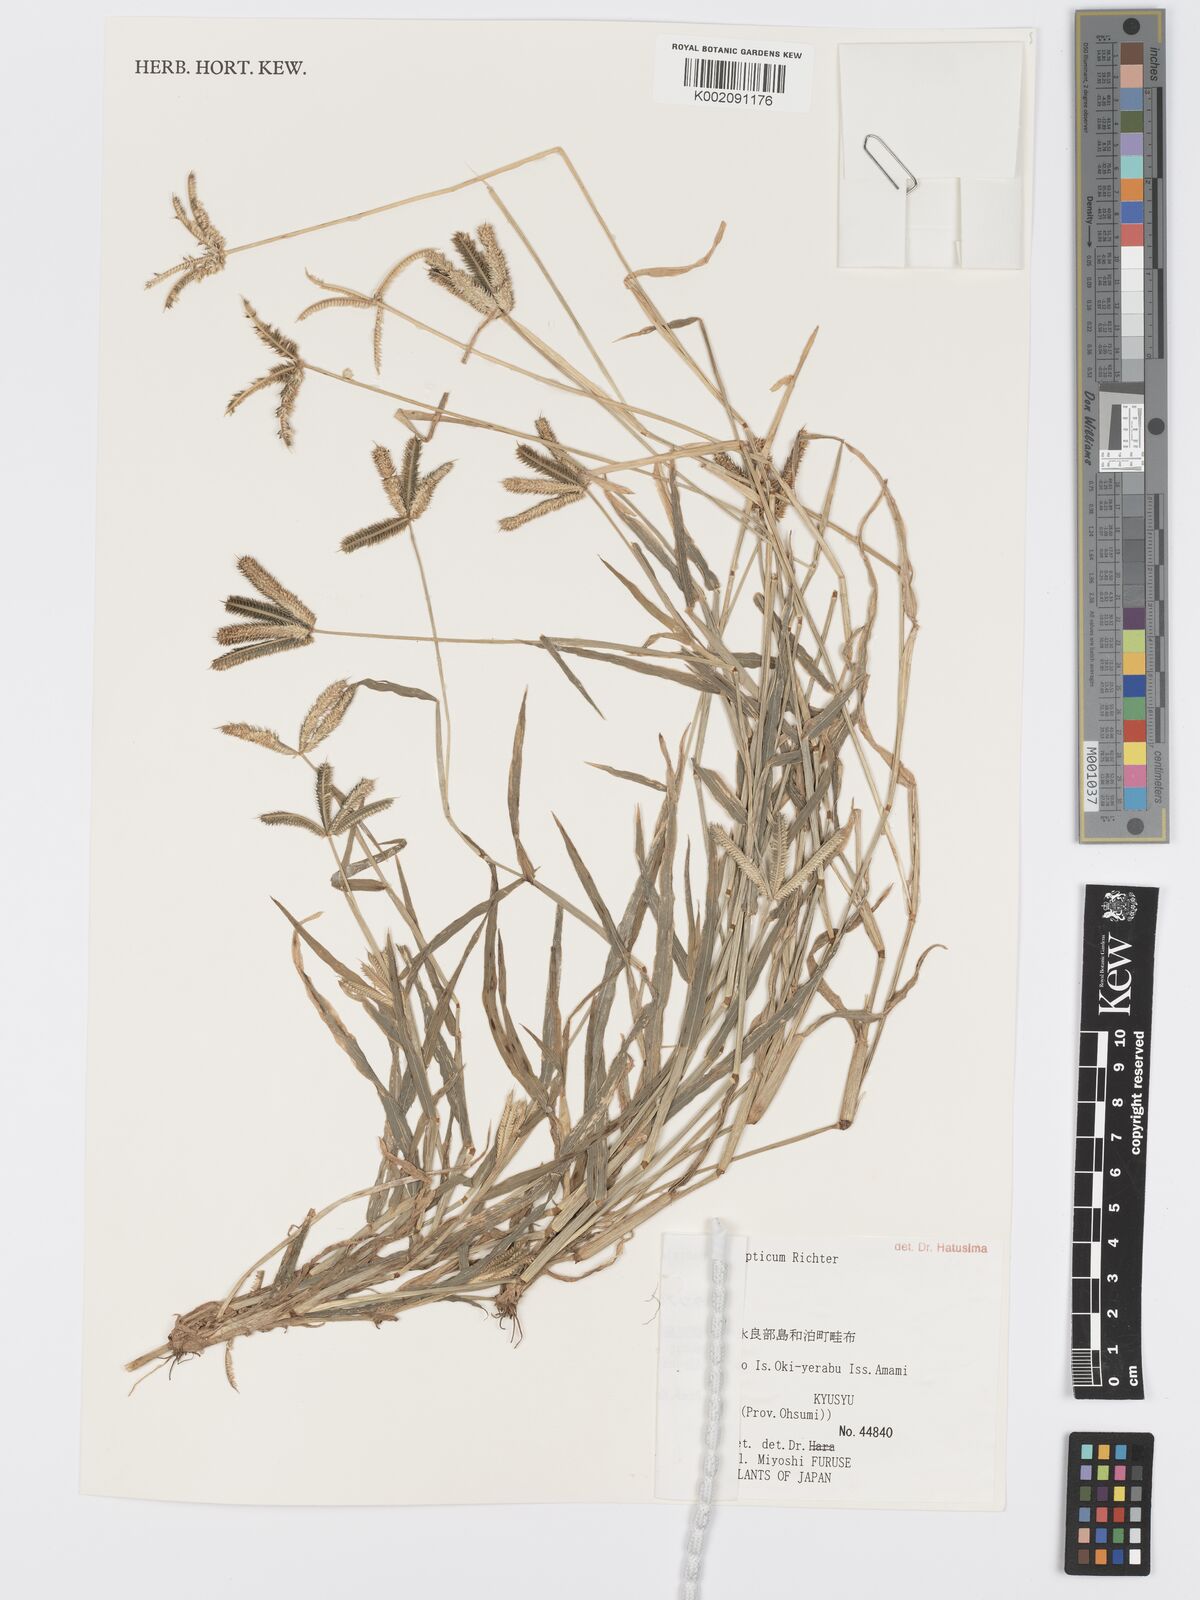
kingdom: Plantae
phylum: Tracheophyta
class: Liliopsida
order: Poales
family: Poaceae
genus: Dactyloctenium
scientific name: Dactyloctenium
